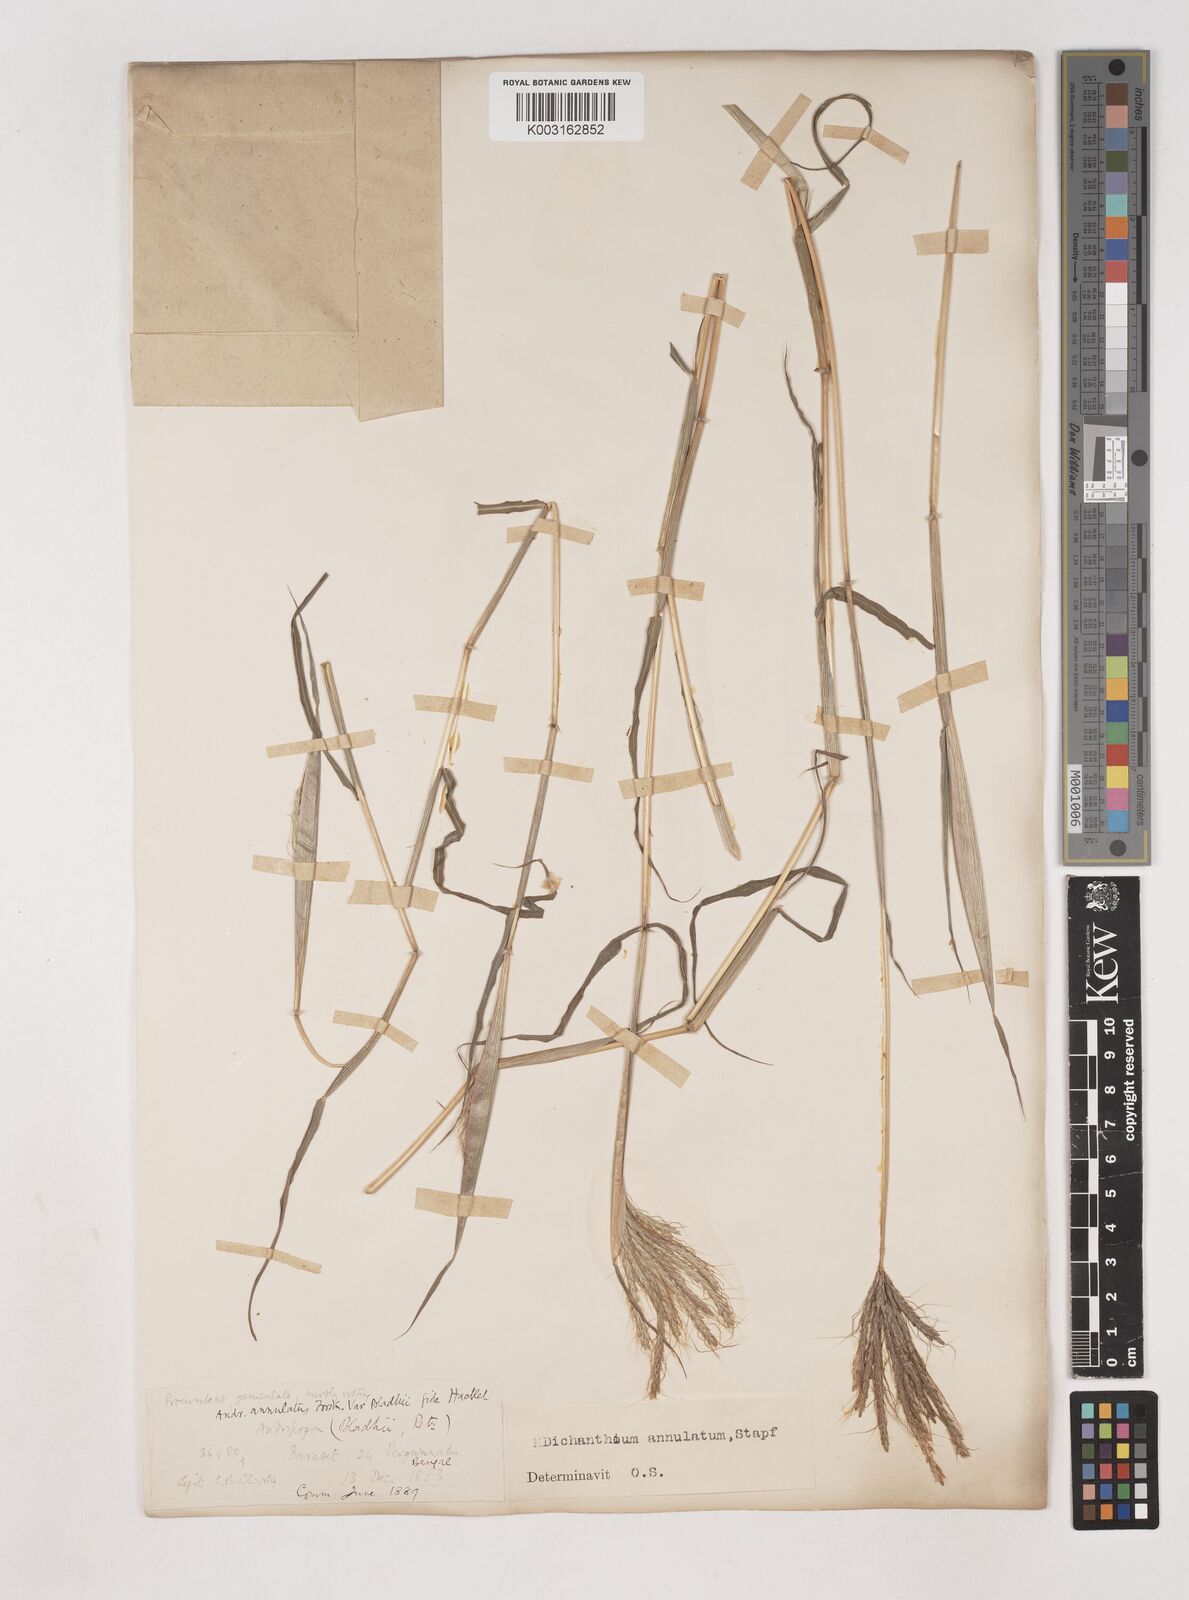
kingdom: Plantae
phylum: Tracheophyta
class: Liliopsida
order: Poales
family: Poaceae
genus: Dichanthium
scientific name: Dichanthium annulatum
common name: Kleberg's bluestem
